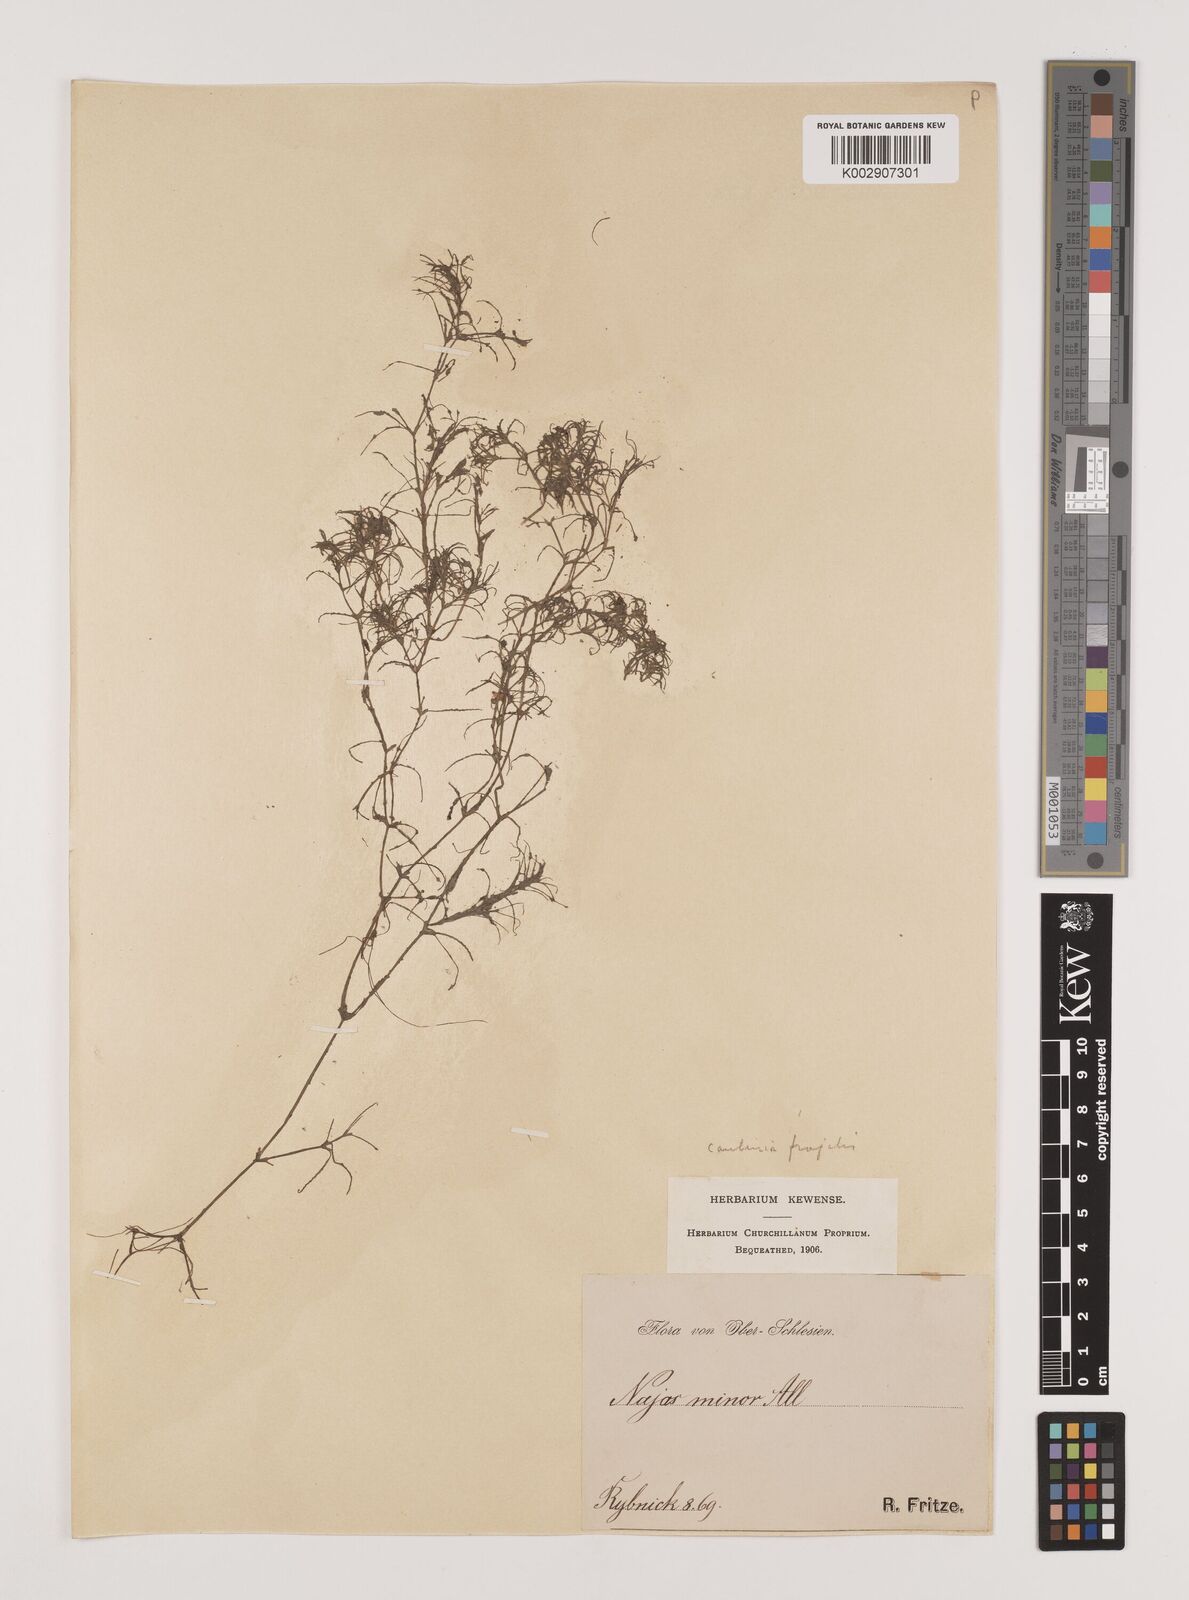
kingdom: Plantae
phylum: Tracheophyta
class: Liliopsida
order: Alismatales
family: Hydrocharitaceae
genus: Najas
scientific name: Najas minor
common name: Brittle naiad
